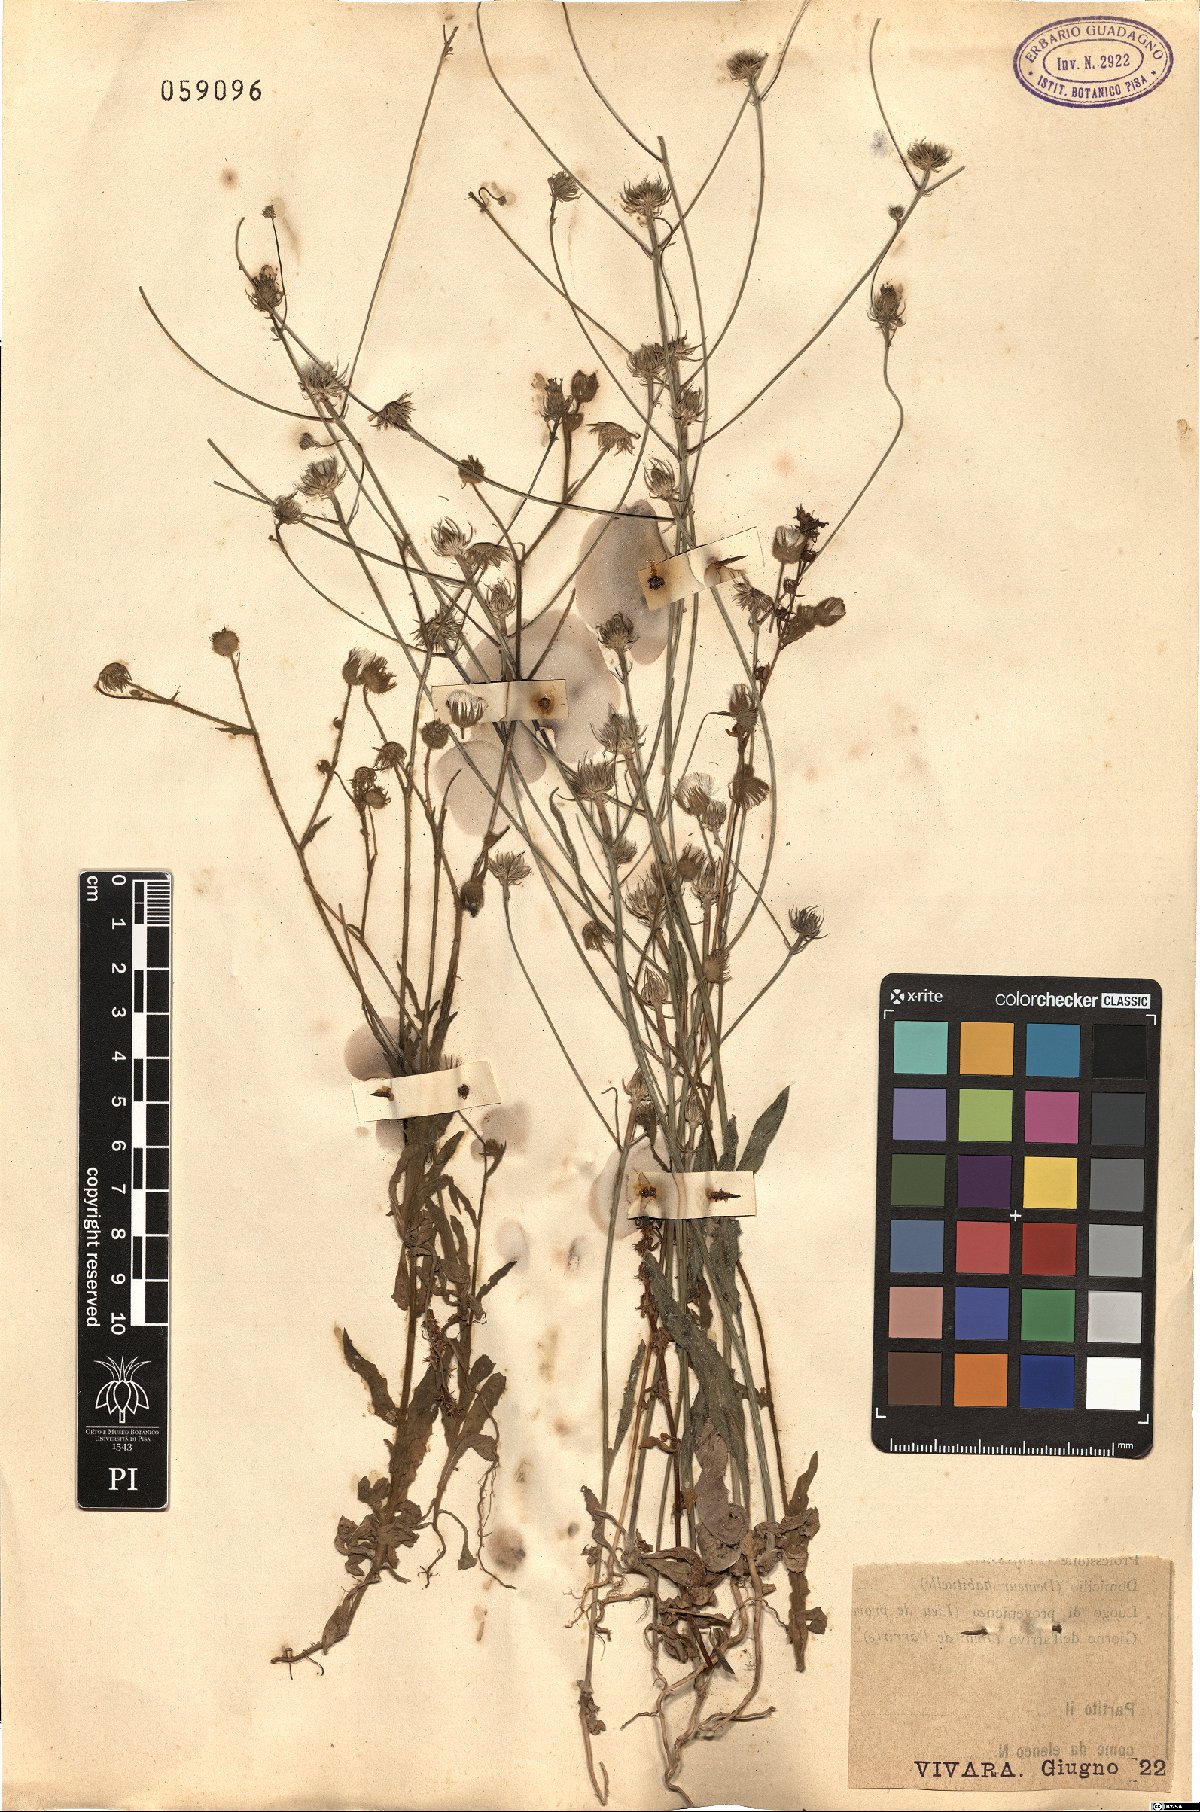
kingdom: Plantae
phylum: Tracheophyta
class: Magnoliopsida
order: Asterales
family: Asteraceae
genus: Crepis
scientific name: Crepis neglecta
